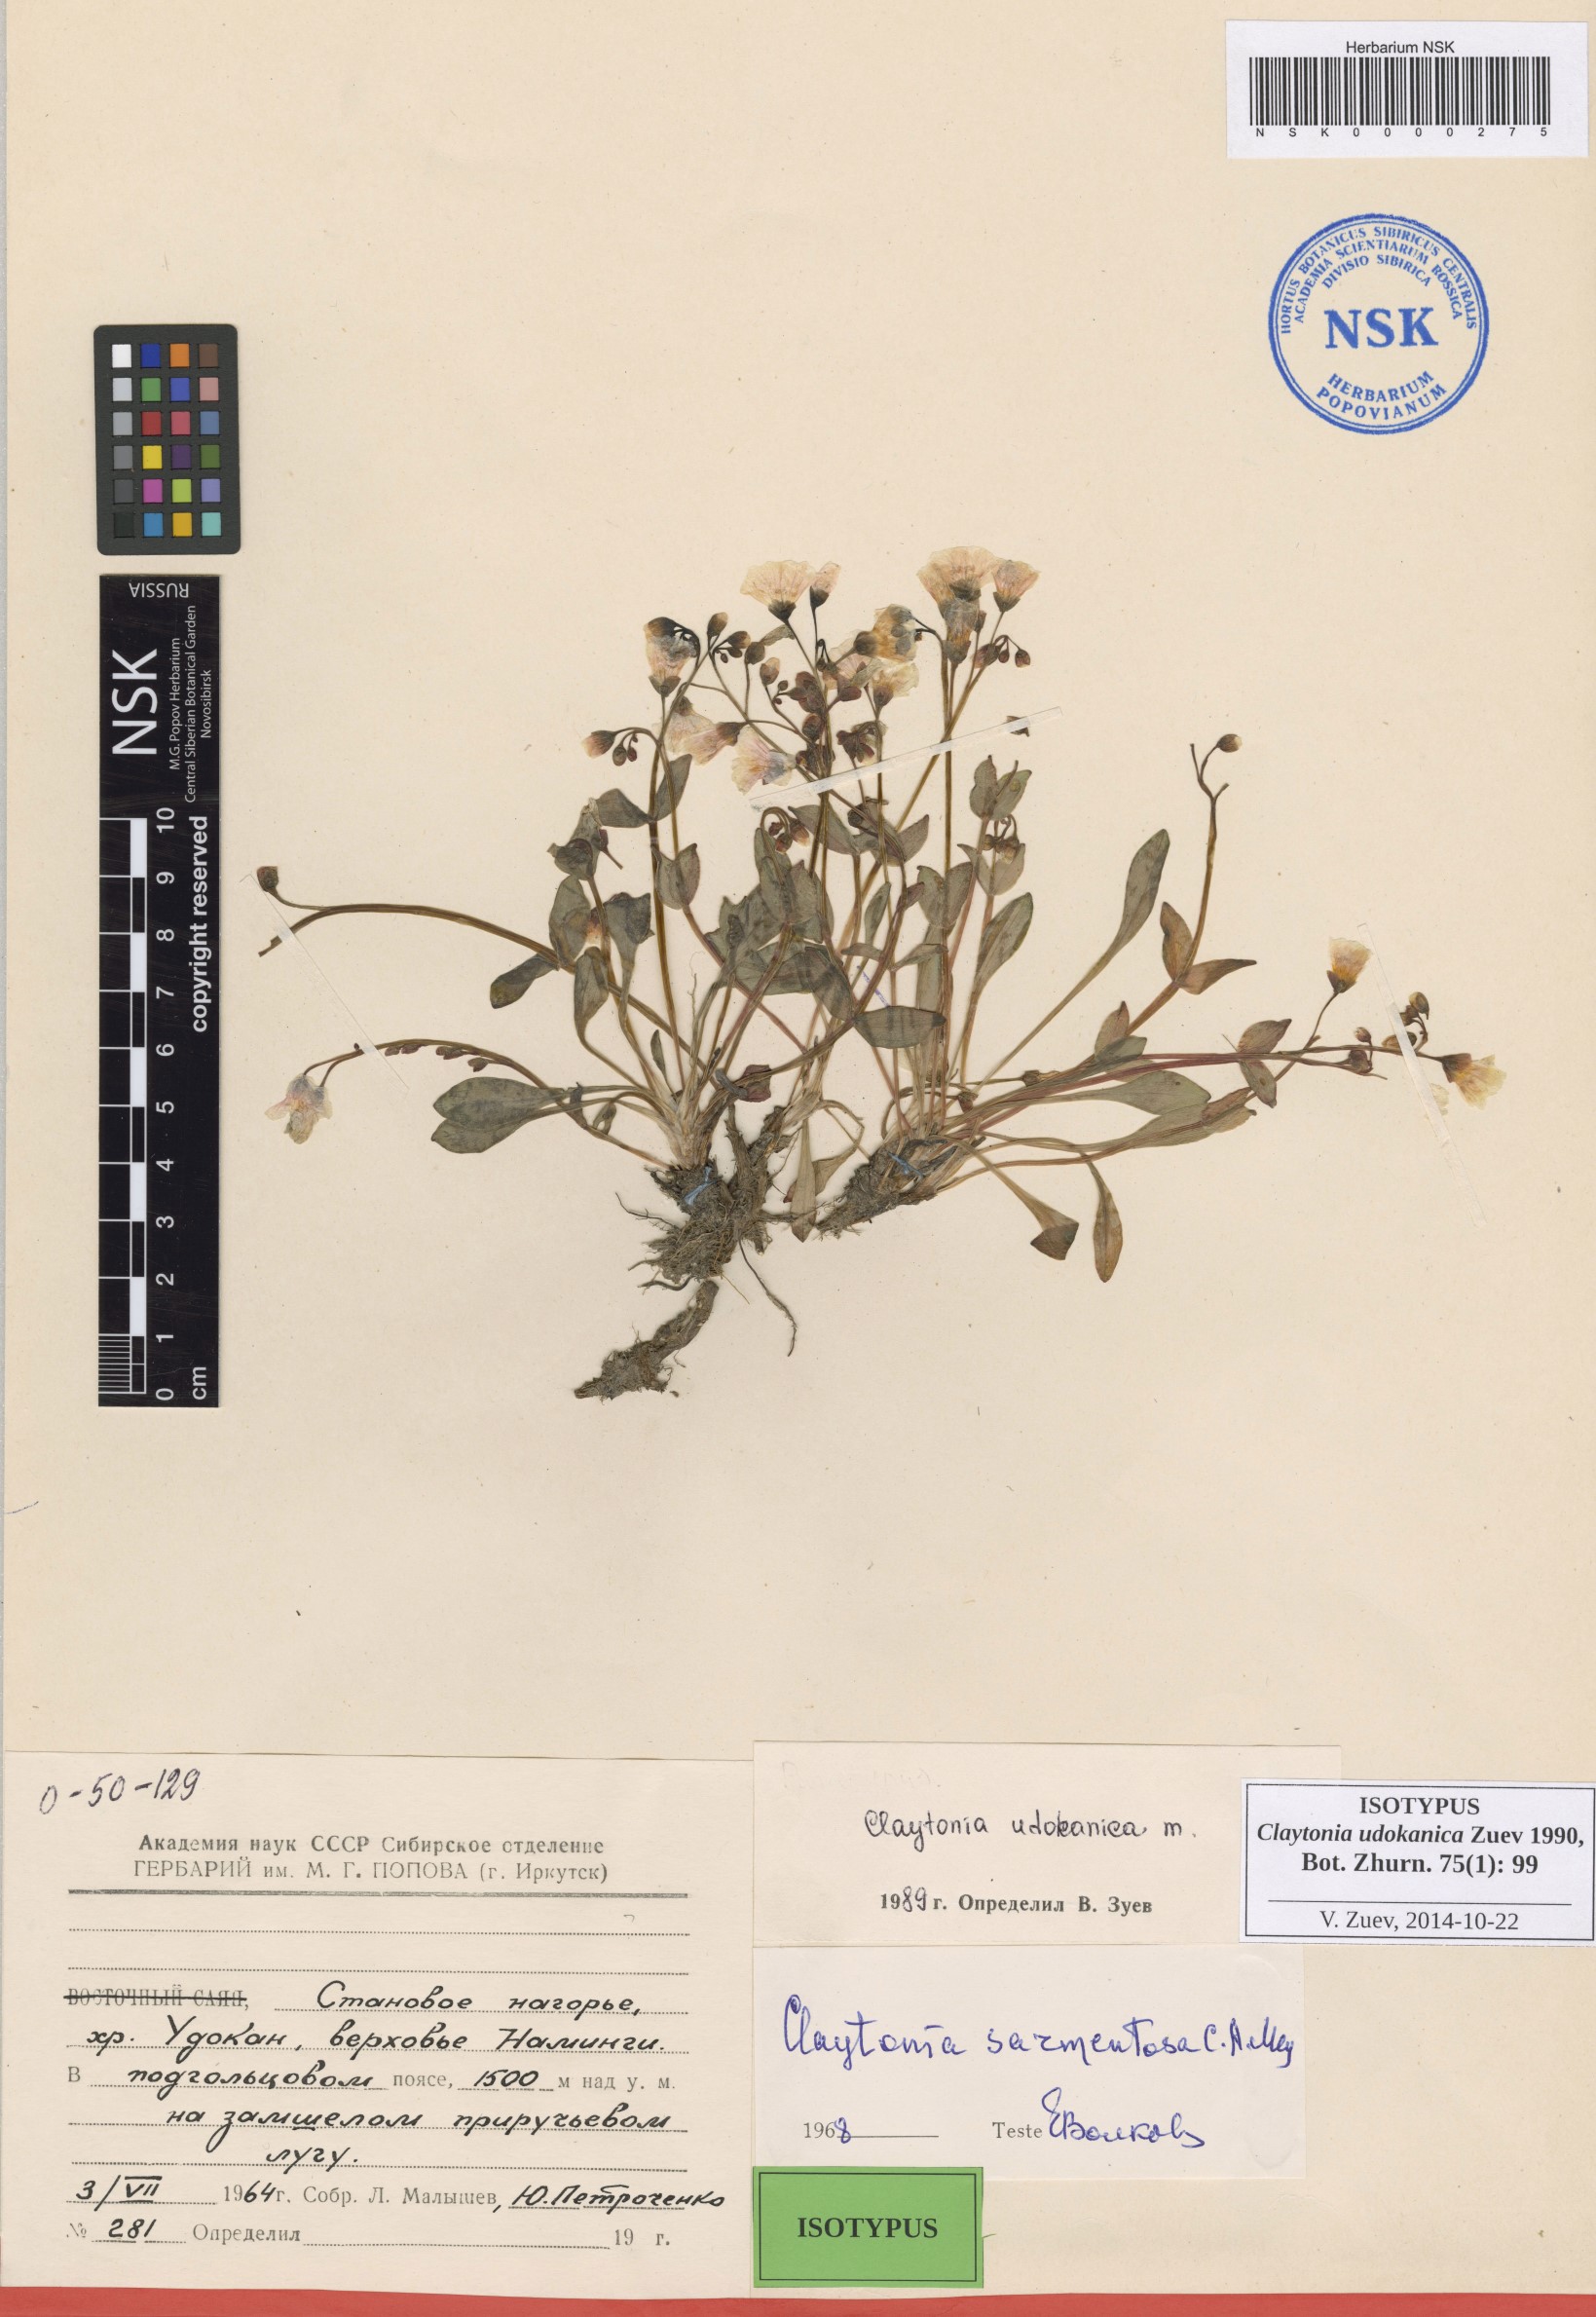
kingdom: Plantae
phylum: Tracheophyta
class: Magnoliopsida
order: Caryophyllales
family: Montiaceae
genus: Claytonia
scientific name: Claytonia udokanica
